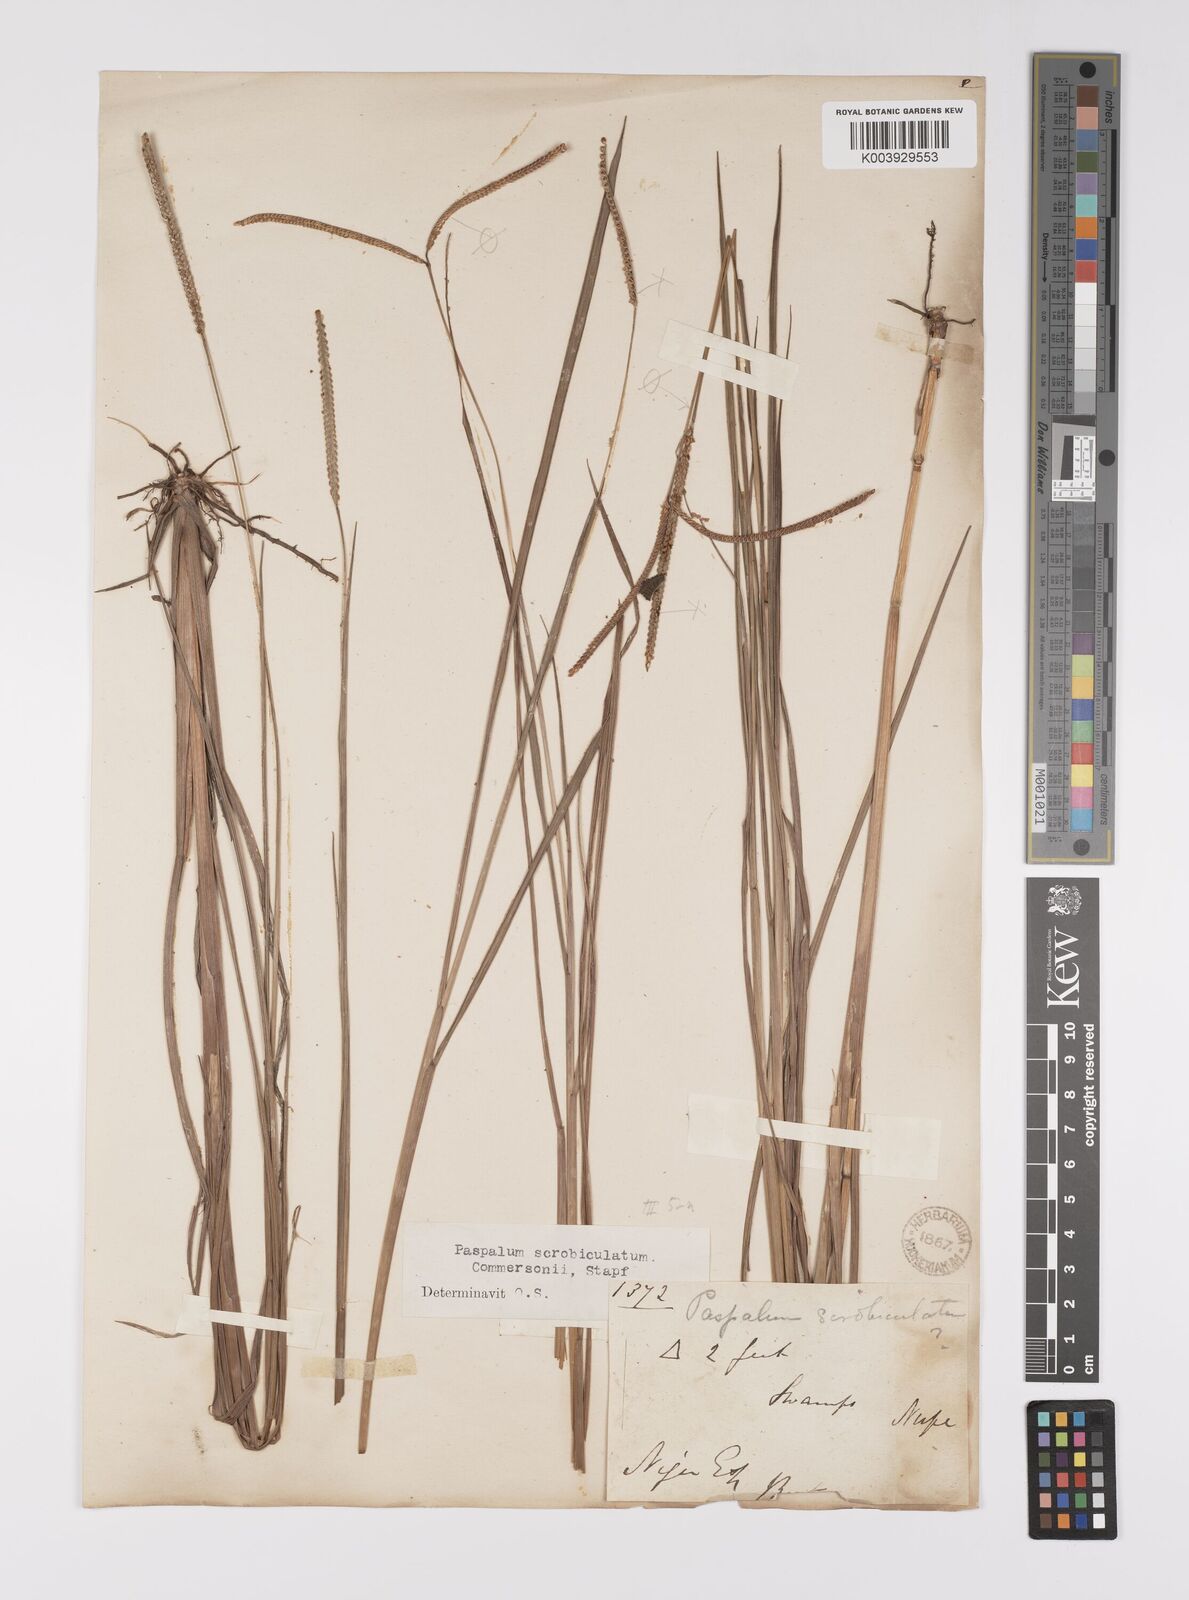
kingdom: Plantae
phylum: Tracheophyta
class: Liliopsida
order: Poales
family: Poaceae
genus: Paspalum
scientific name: Paspalum scrobiculatum
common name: Kodo millet
